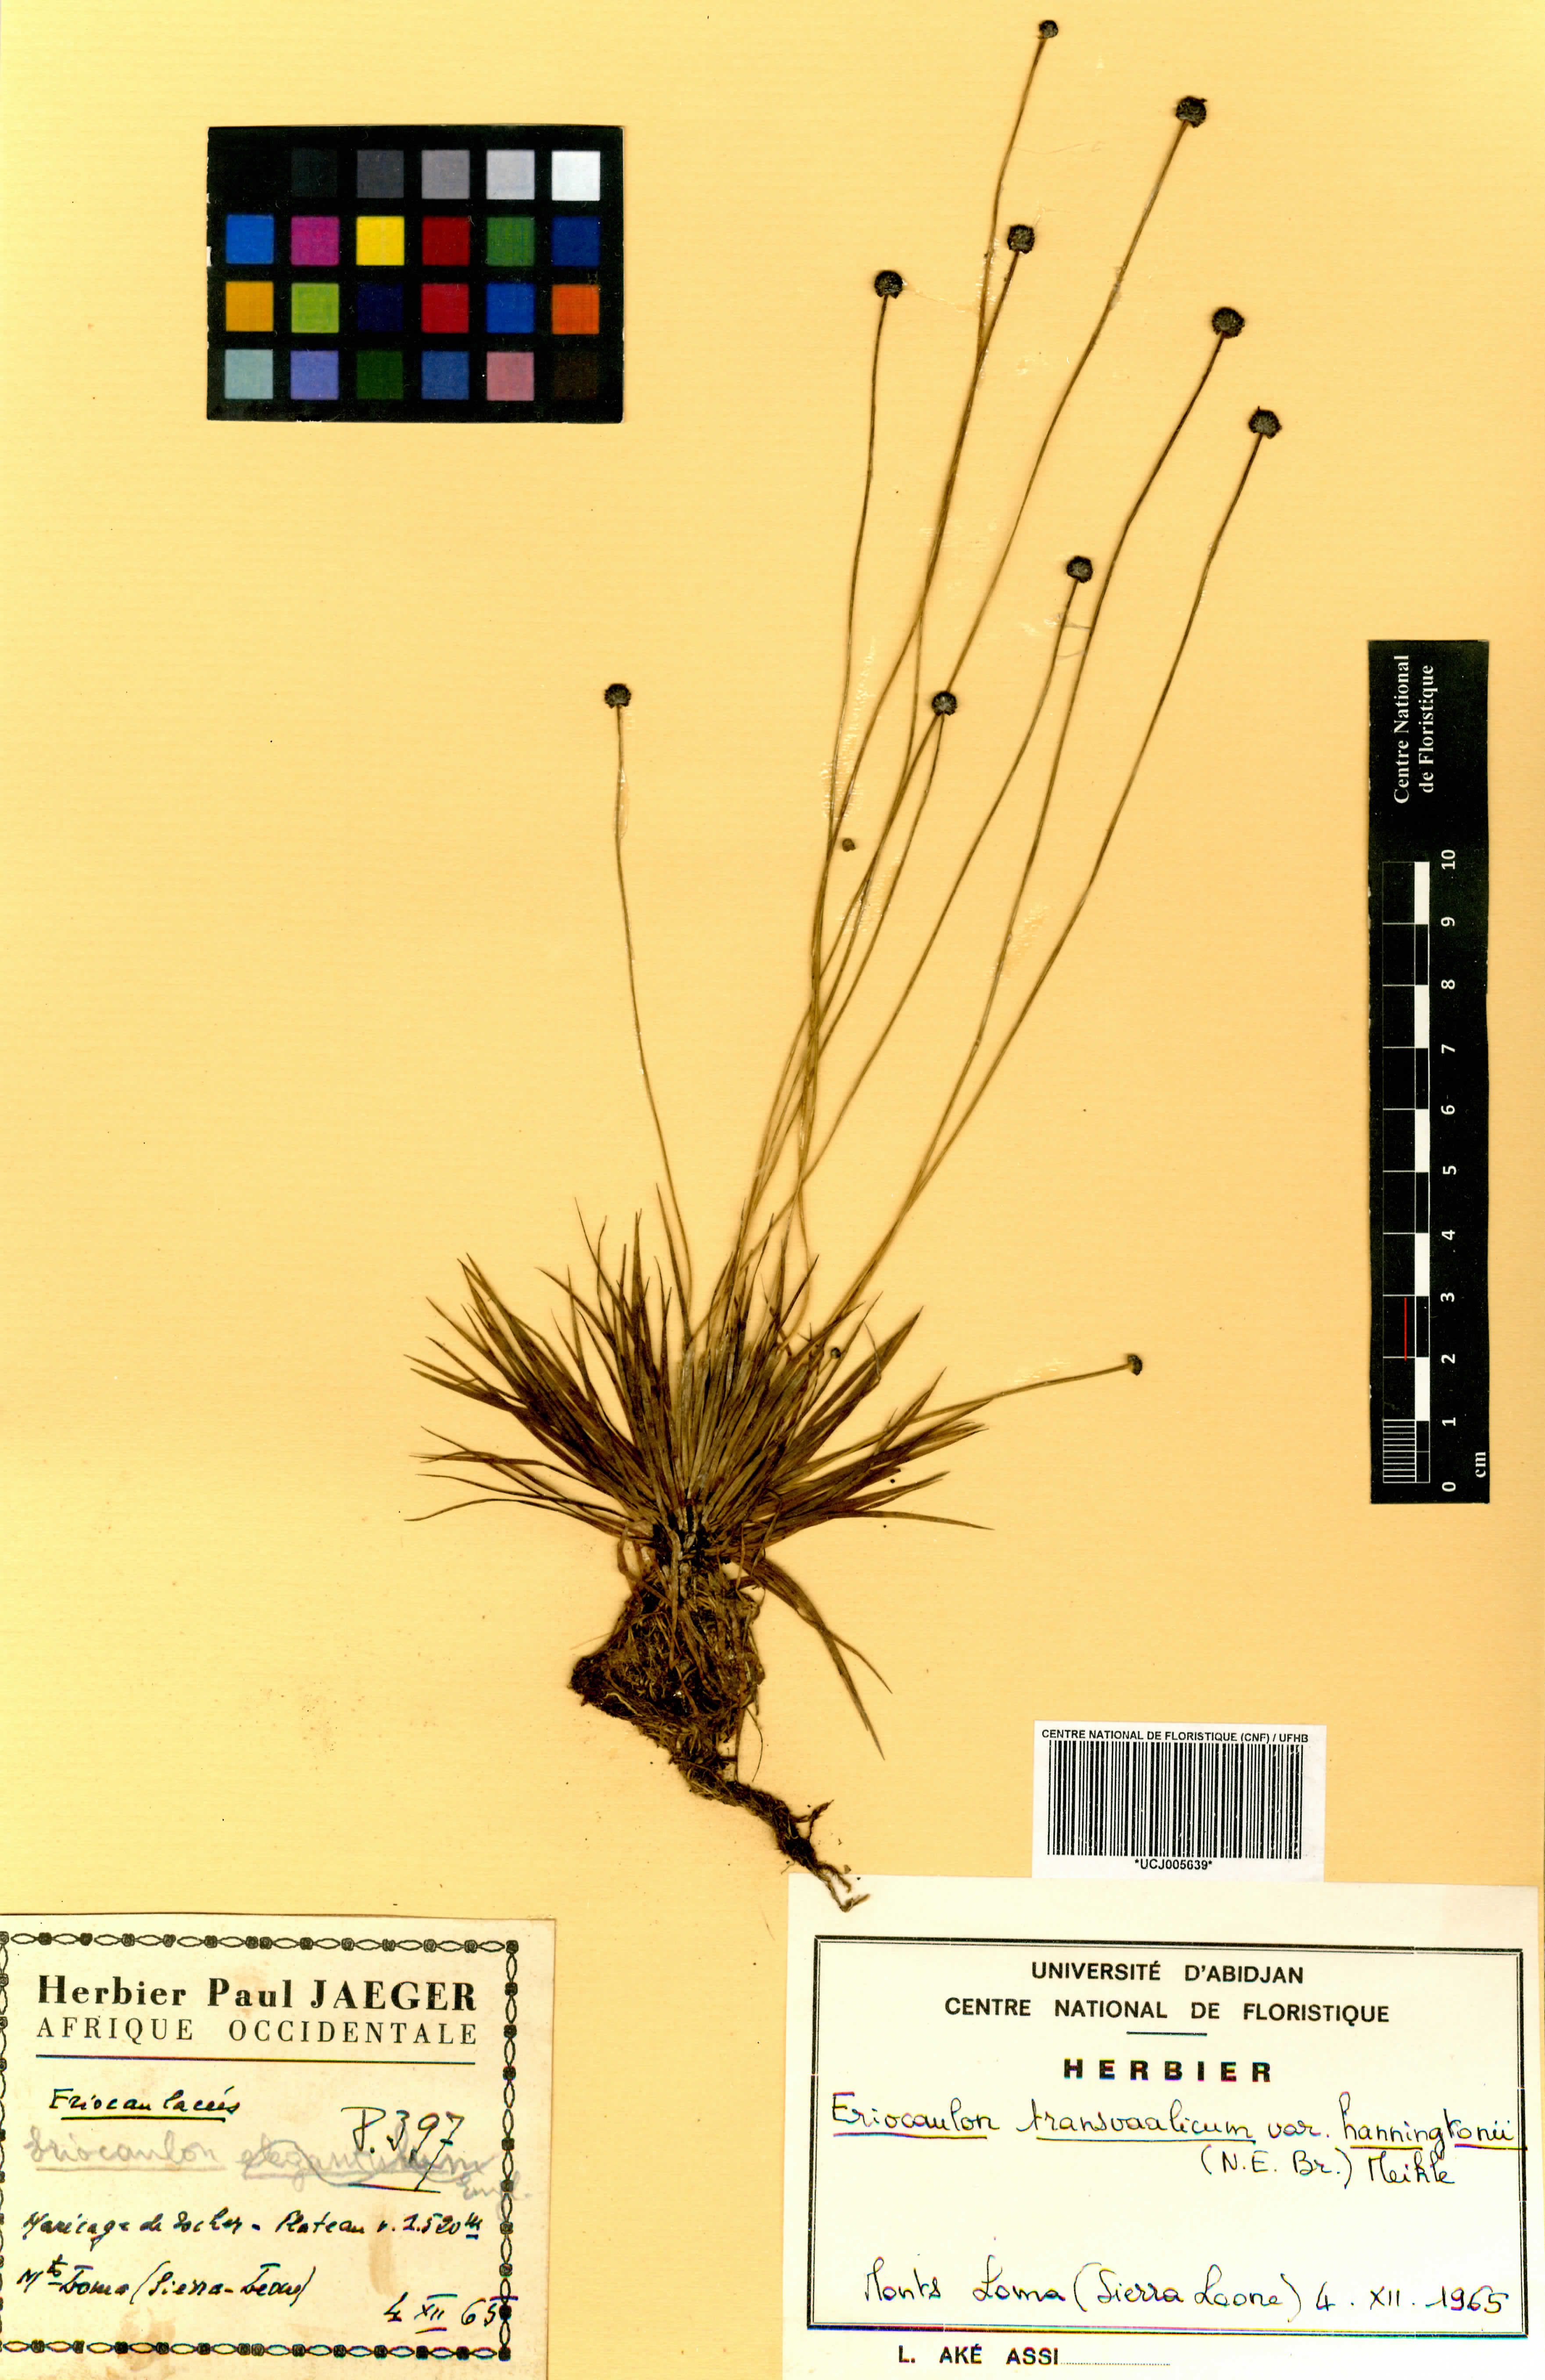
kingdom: Plantae
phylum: Tracheophyta
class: Liliopsida
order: Poales
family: Eriocaulaceae
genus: Eriocaulon
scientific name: Eriocaulon transvaalicum
